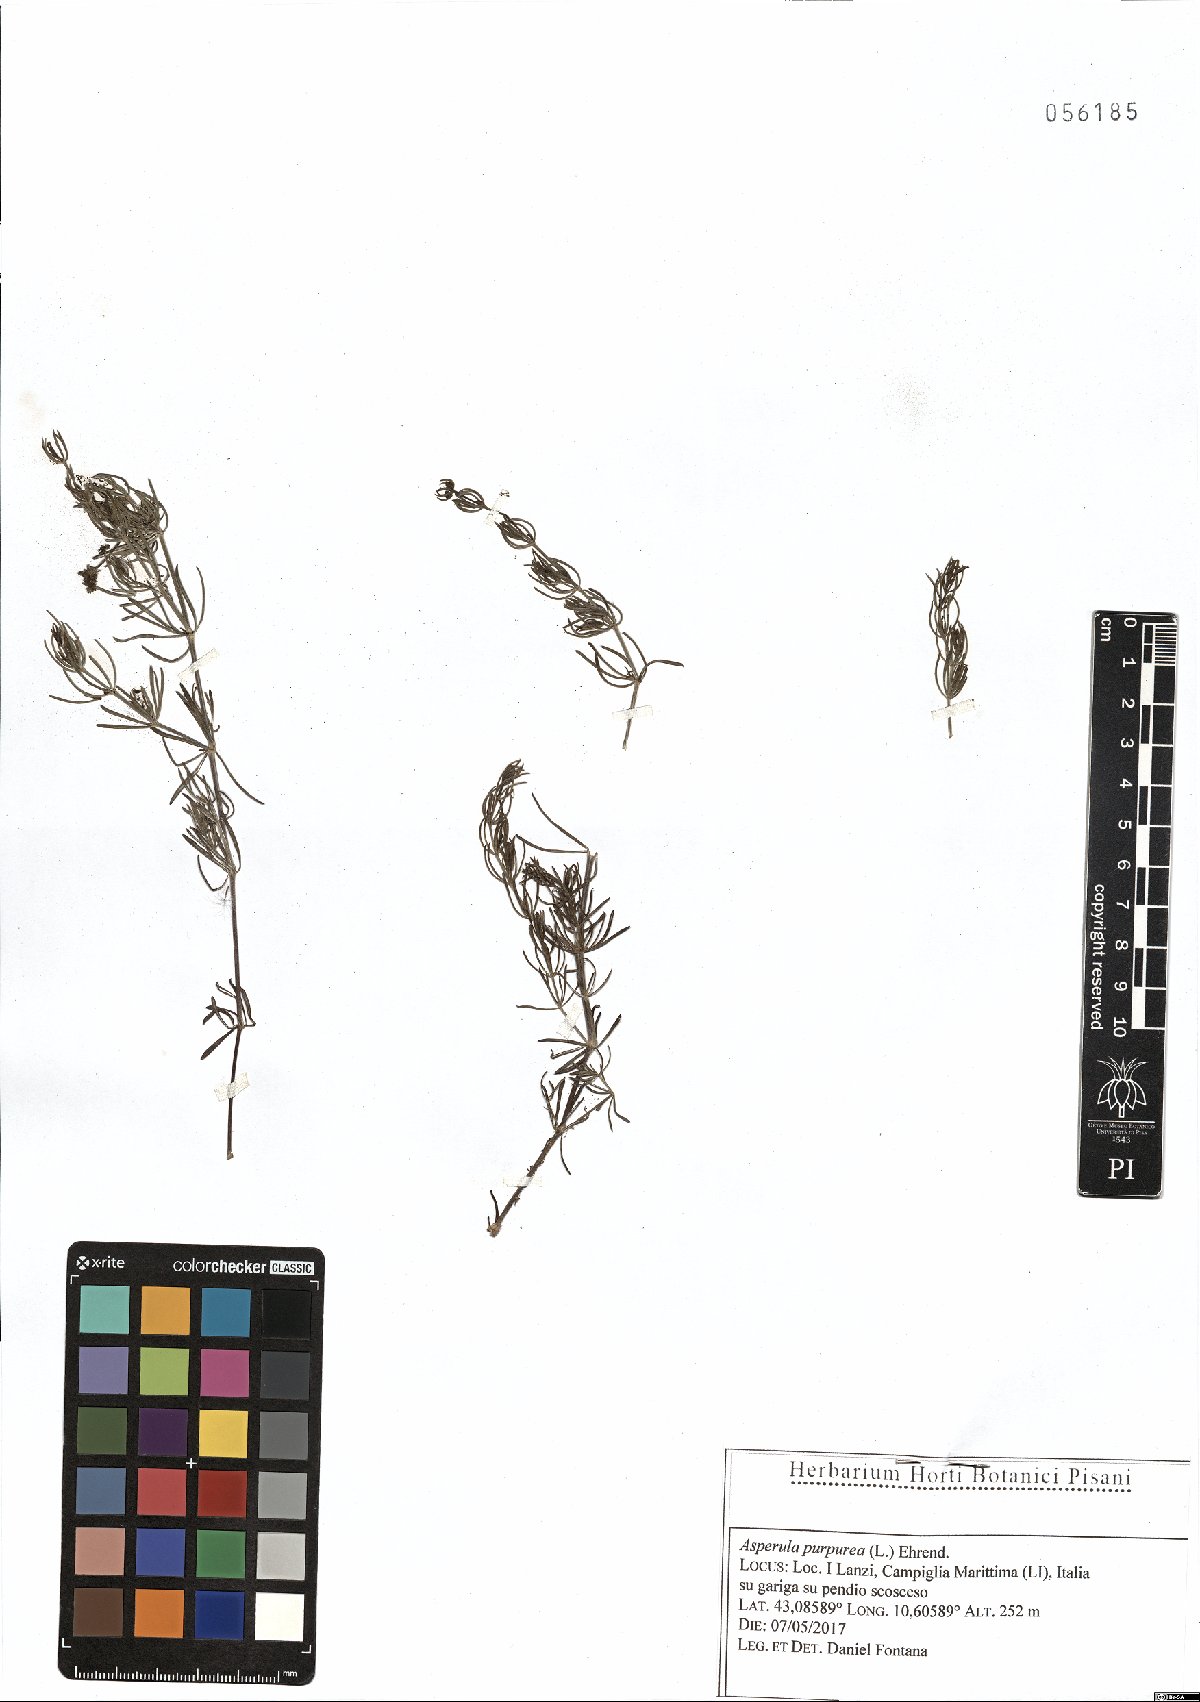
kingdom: Plantae
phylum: Tracheophyta
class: Magnoliopsida
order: Gentianales
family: Rubiaceae
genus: Thliphthisa
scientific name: Thliphthisa purpurea
